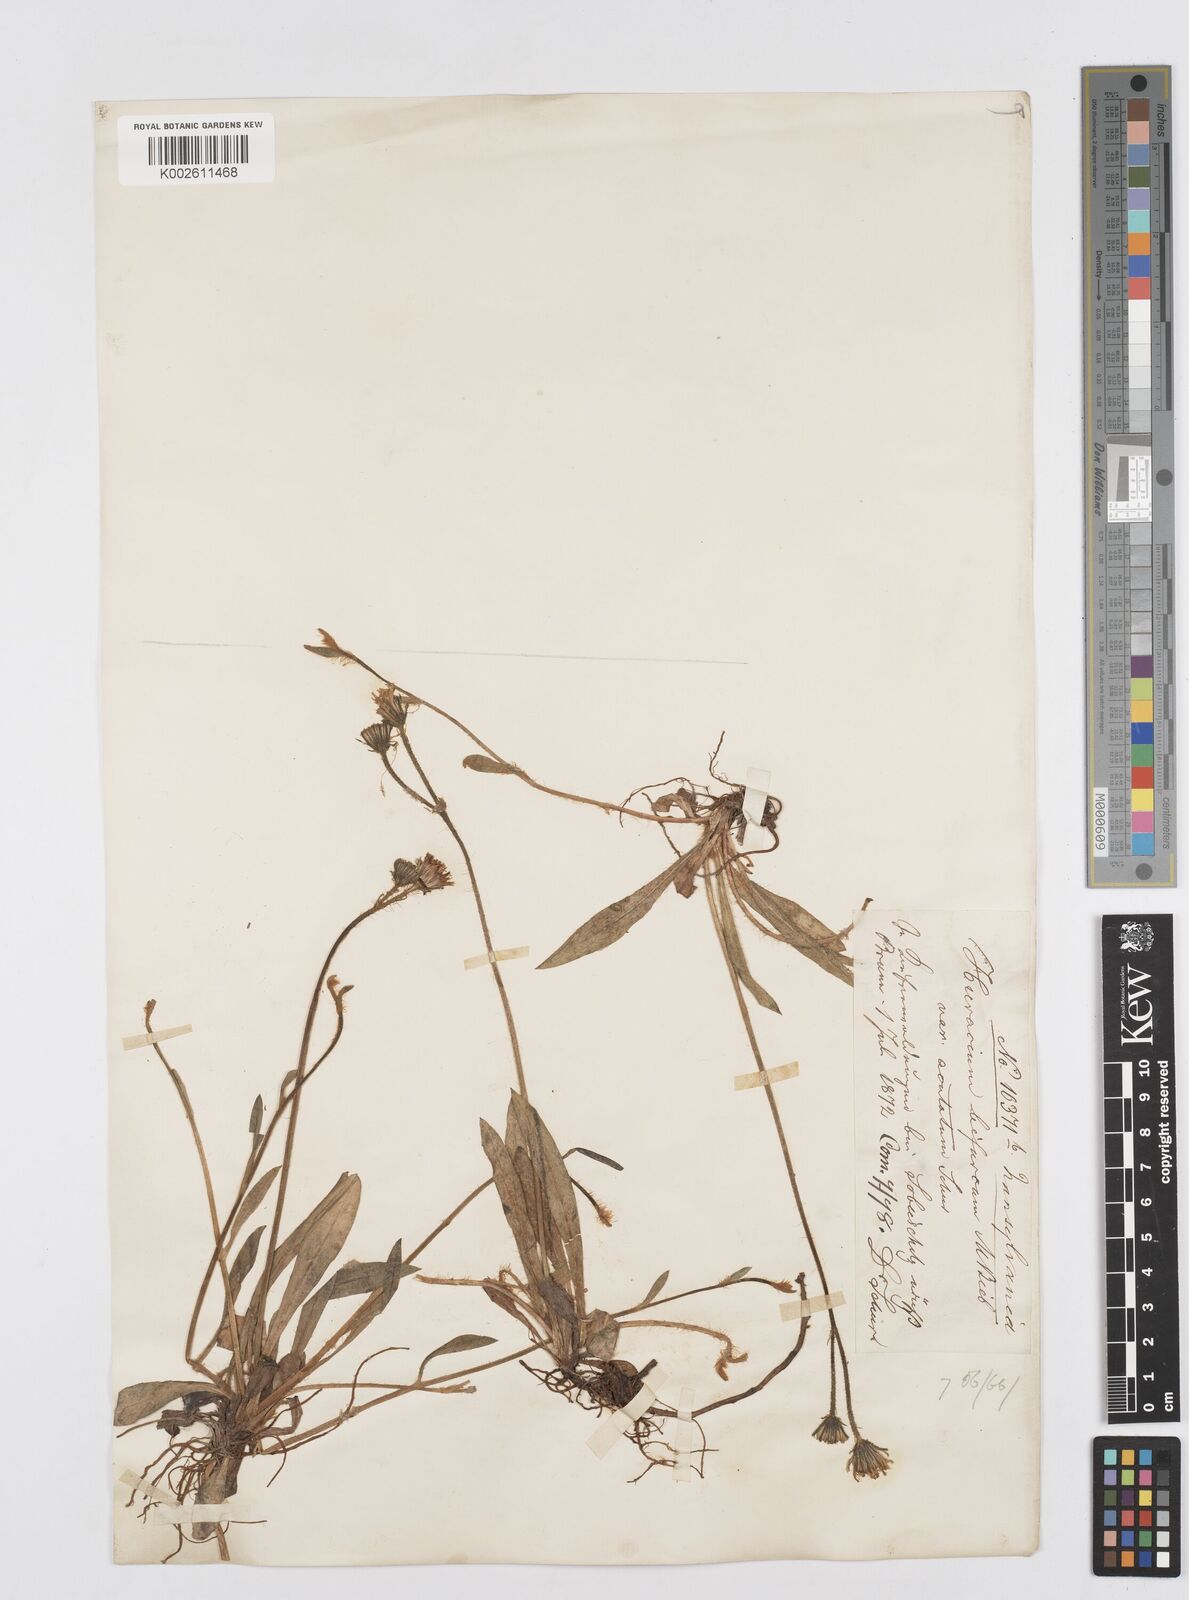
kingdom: Plantae
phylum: Tracheophyta
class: Magnoliopsida
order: Asterales
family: Asteraceae
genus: Pilosella
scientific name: Pilosella acutifolia
